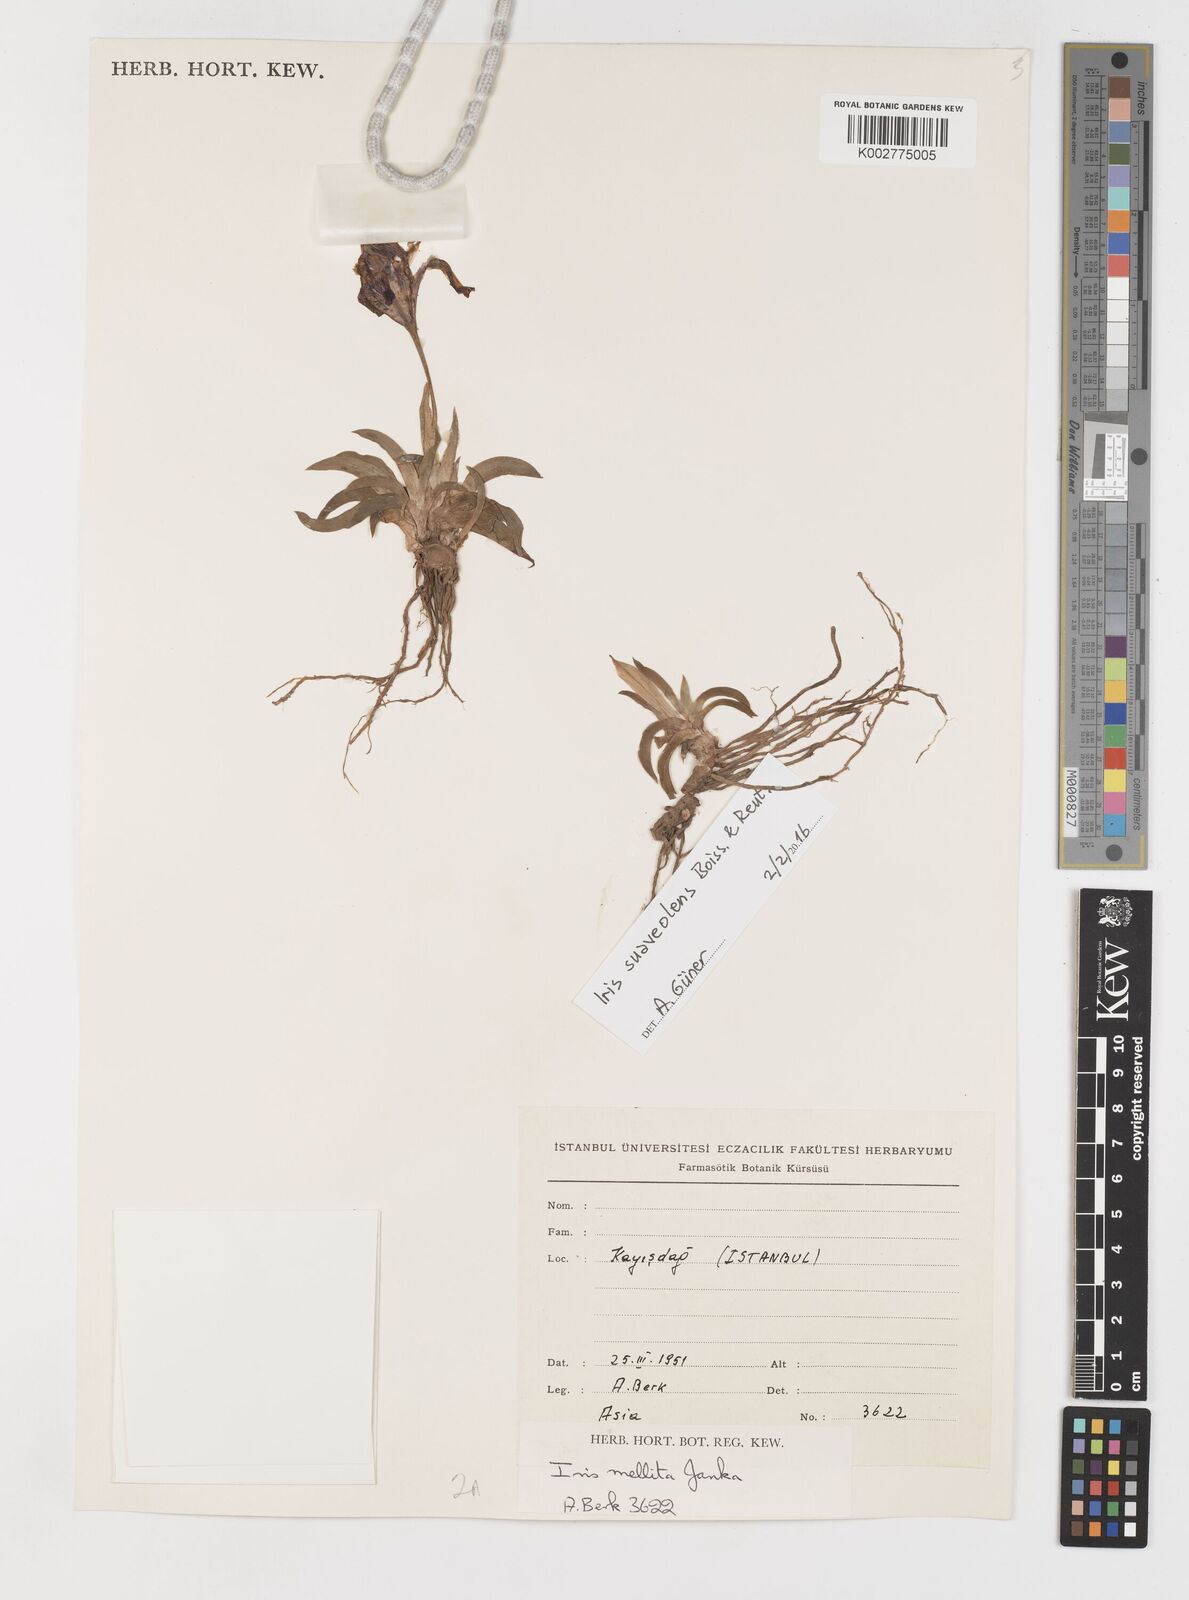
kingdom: Plantae
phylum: Tracheophyta
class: Liliopsida
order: Asparagales
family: Iridaceae
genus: Iris
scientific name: Iris suaveolens
